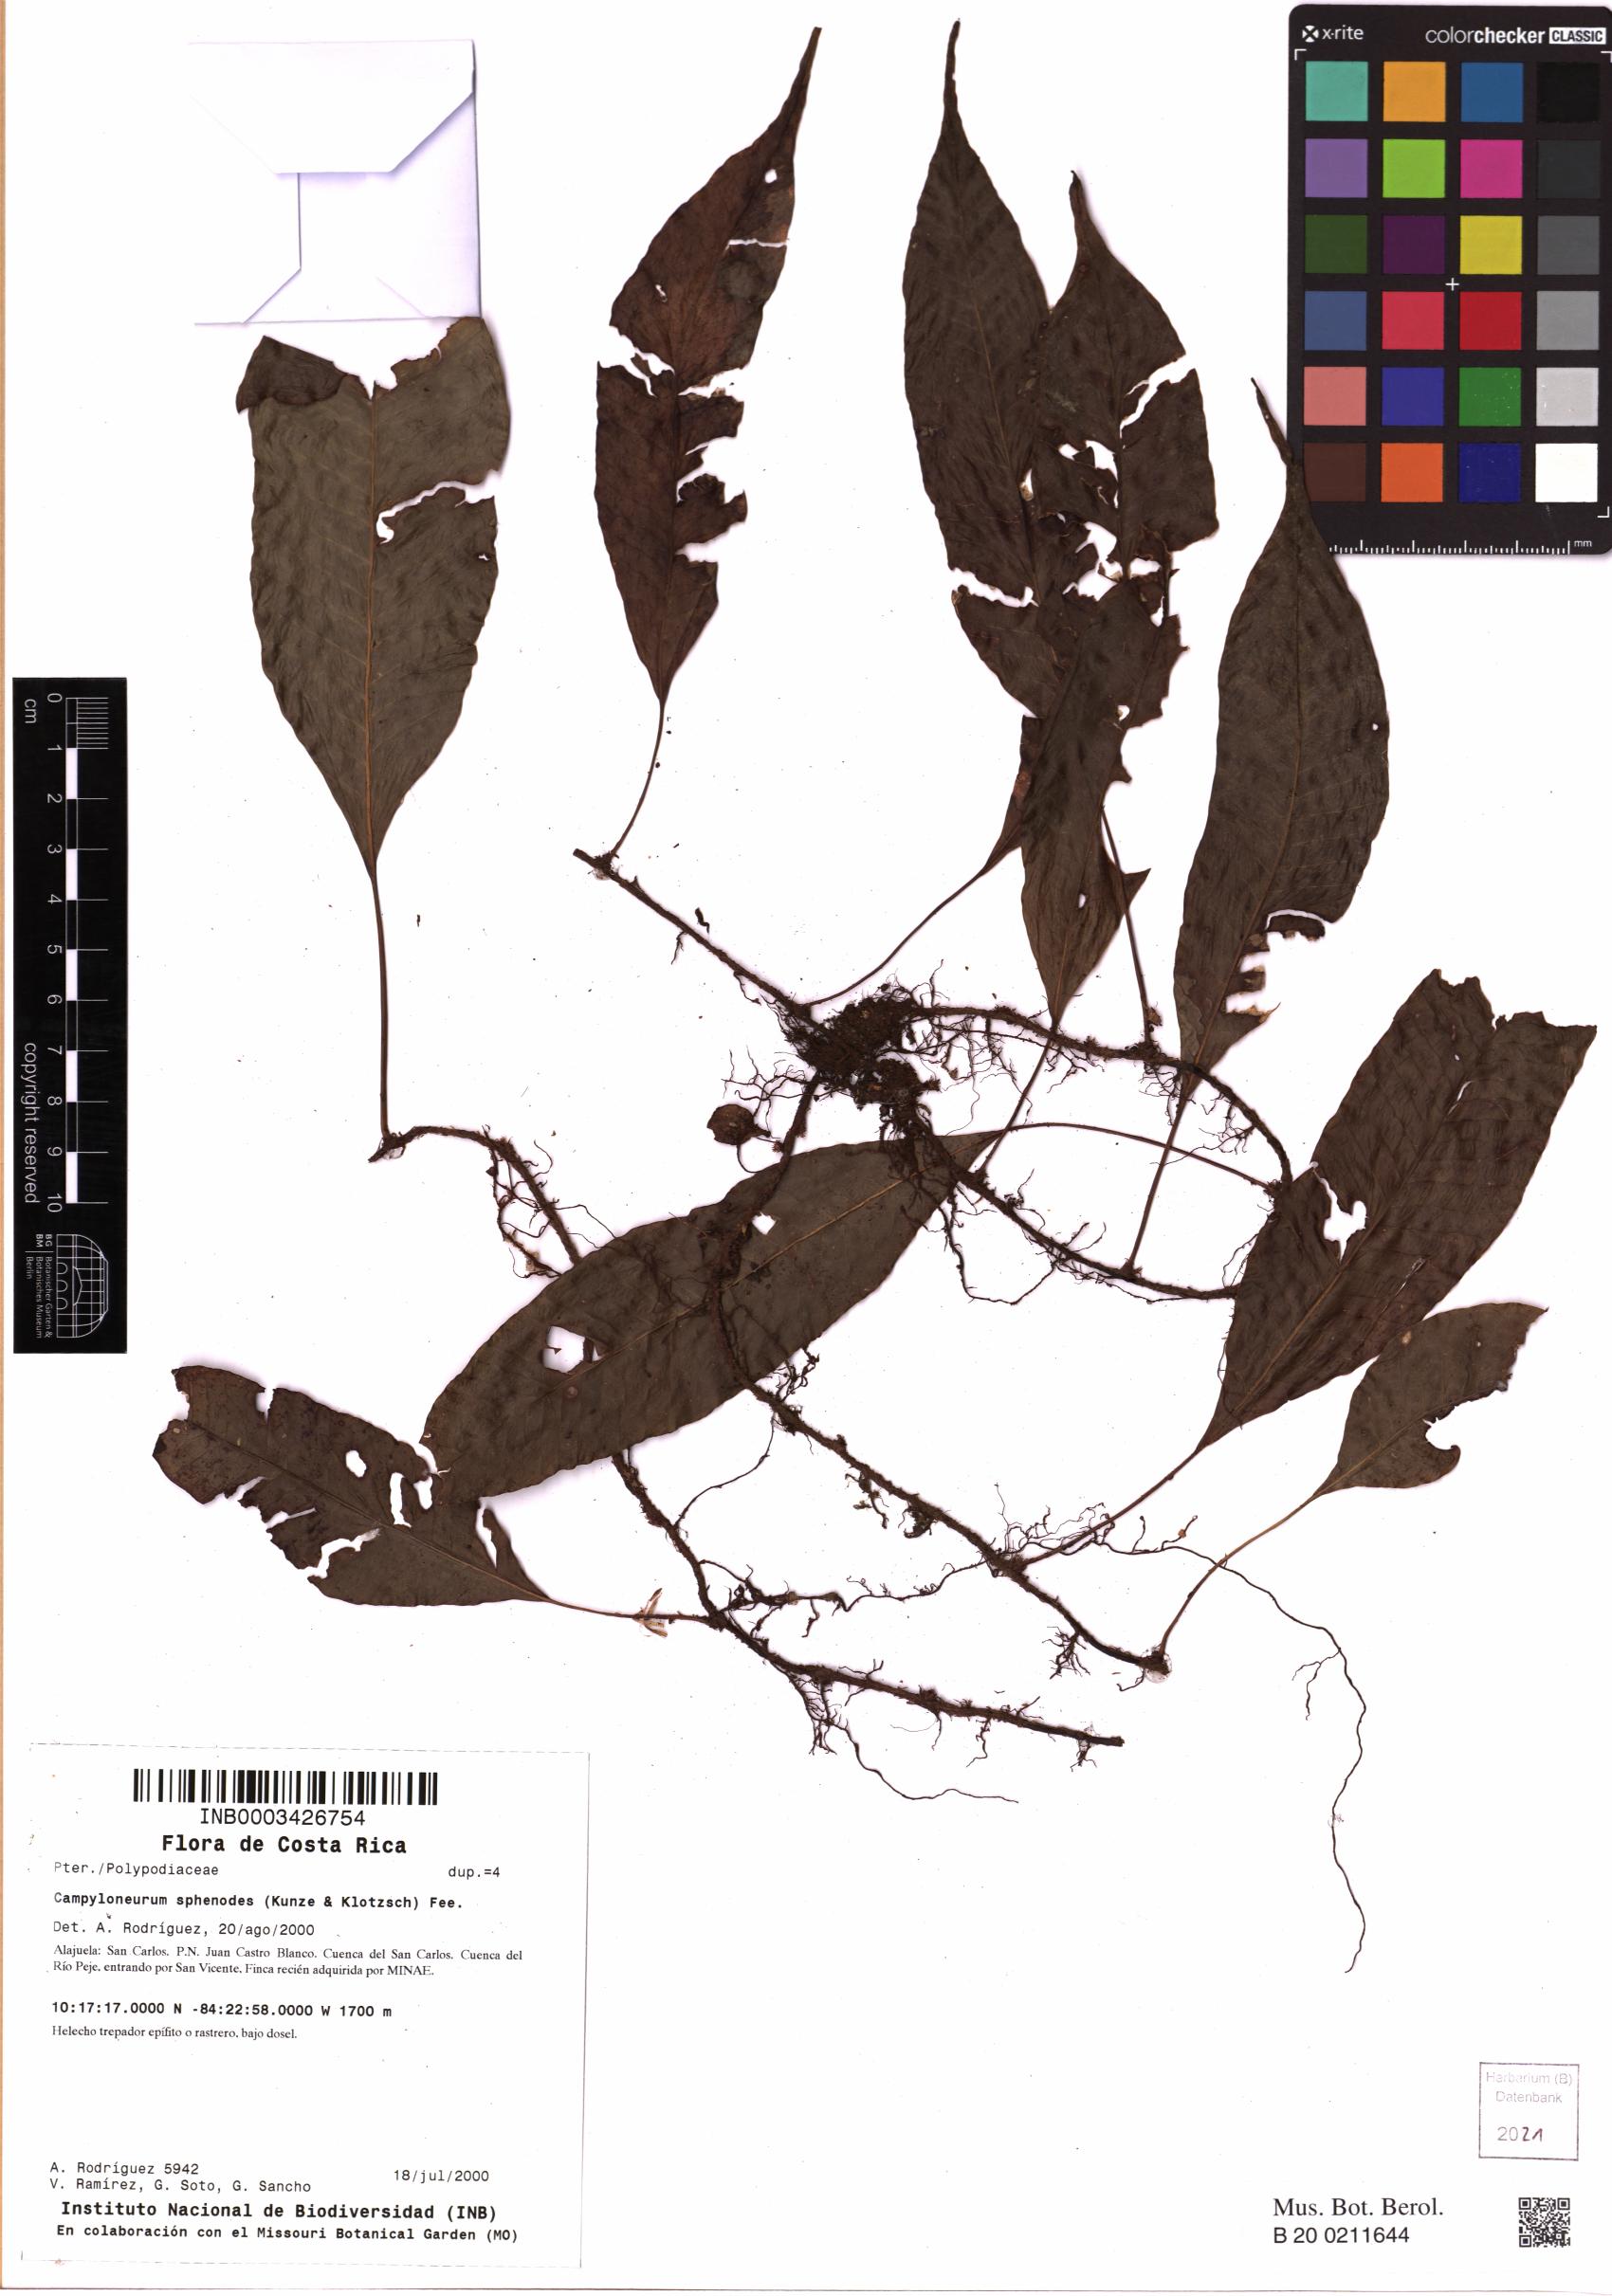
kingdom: Plantae
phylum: Tracheophyta
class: Polypodiopsida
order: Polypodiales
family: Polypodiaceae
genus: Campyloneurum
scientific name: Campyloneurum sphenodes
